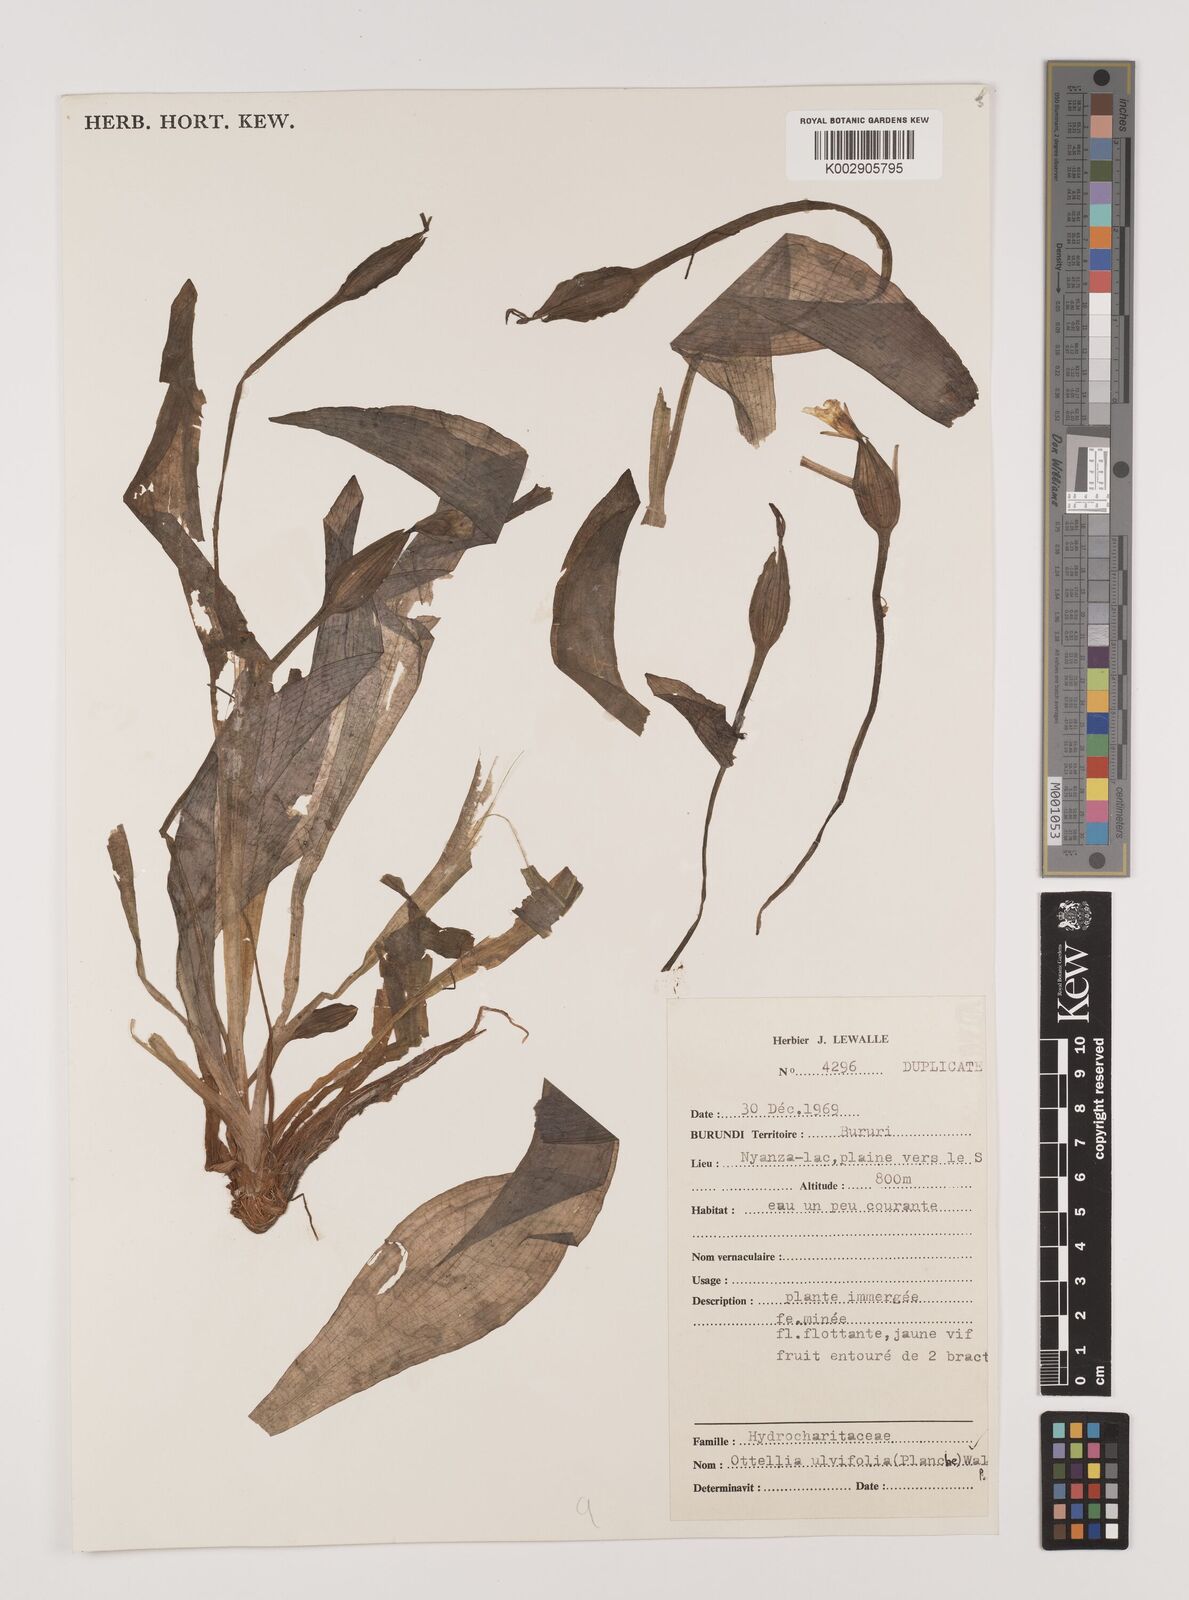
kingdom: Plantae
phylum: Tracheophyta
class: Liliopsida
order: Alismatales
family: Hydrocharitaceae
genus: Ottelia
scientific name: Ottelia ulvifolia
